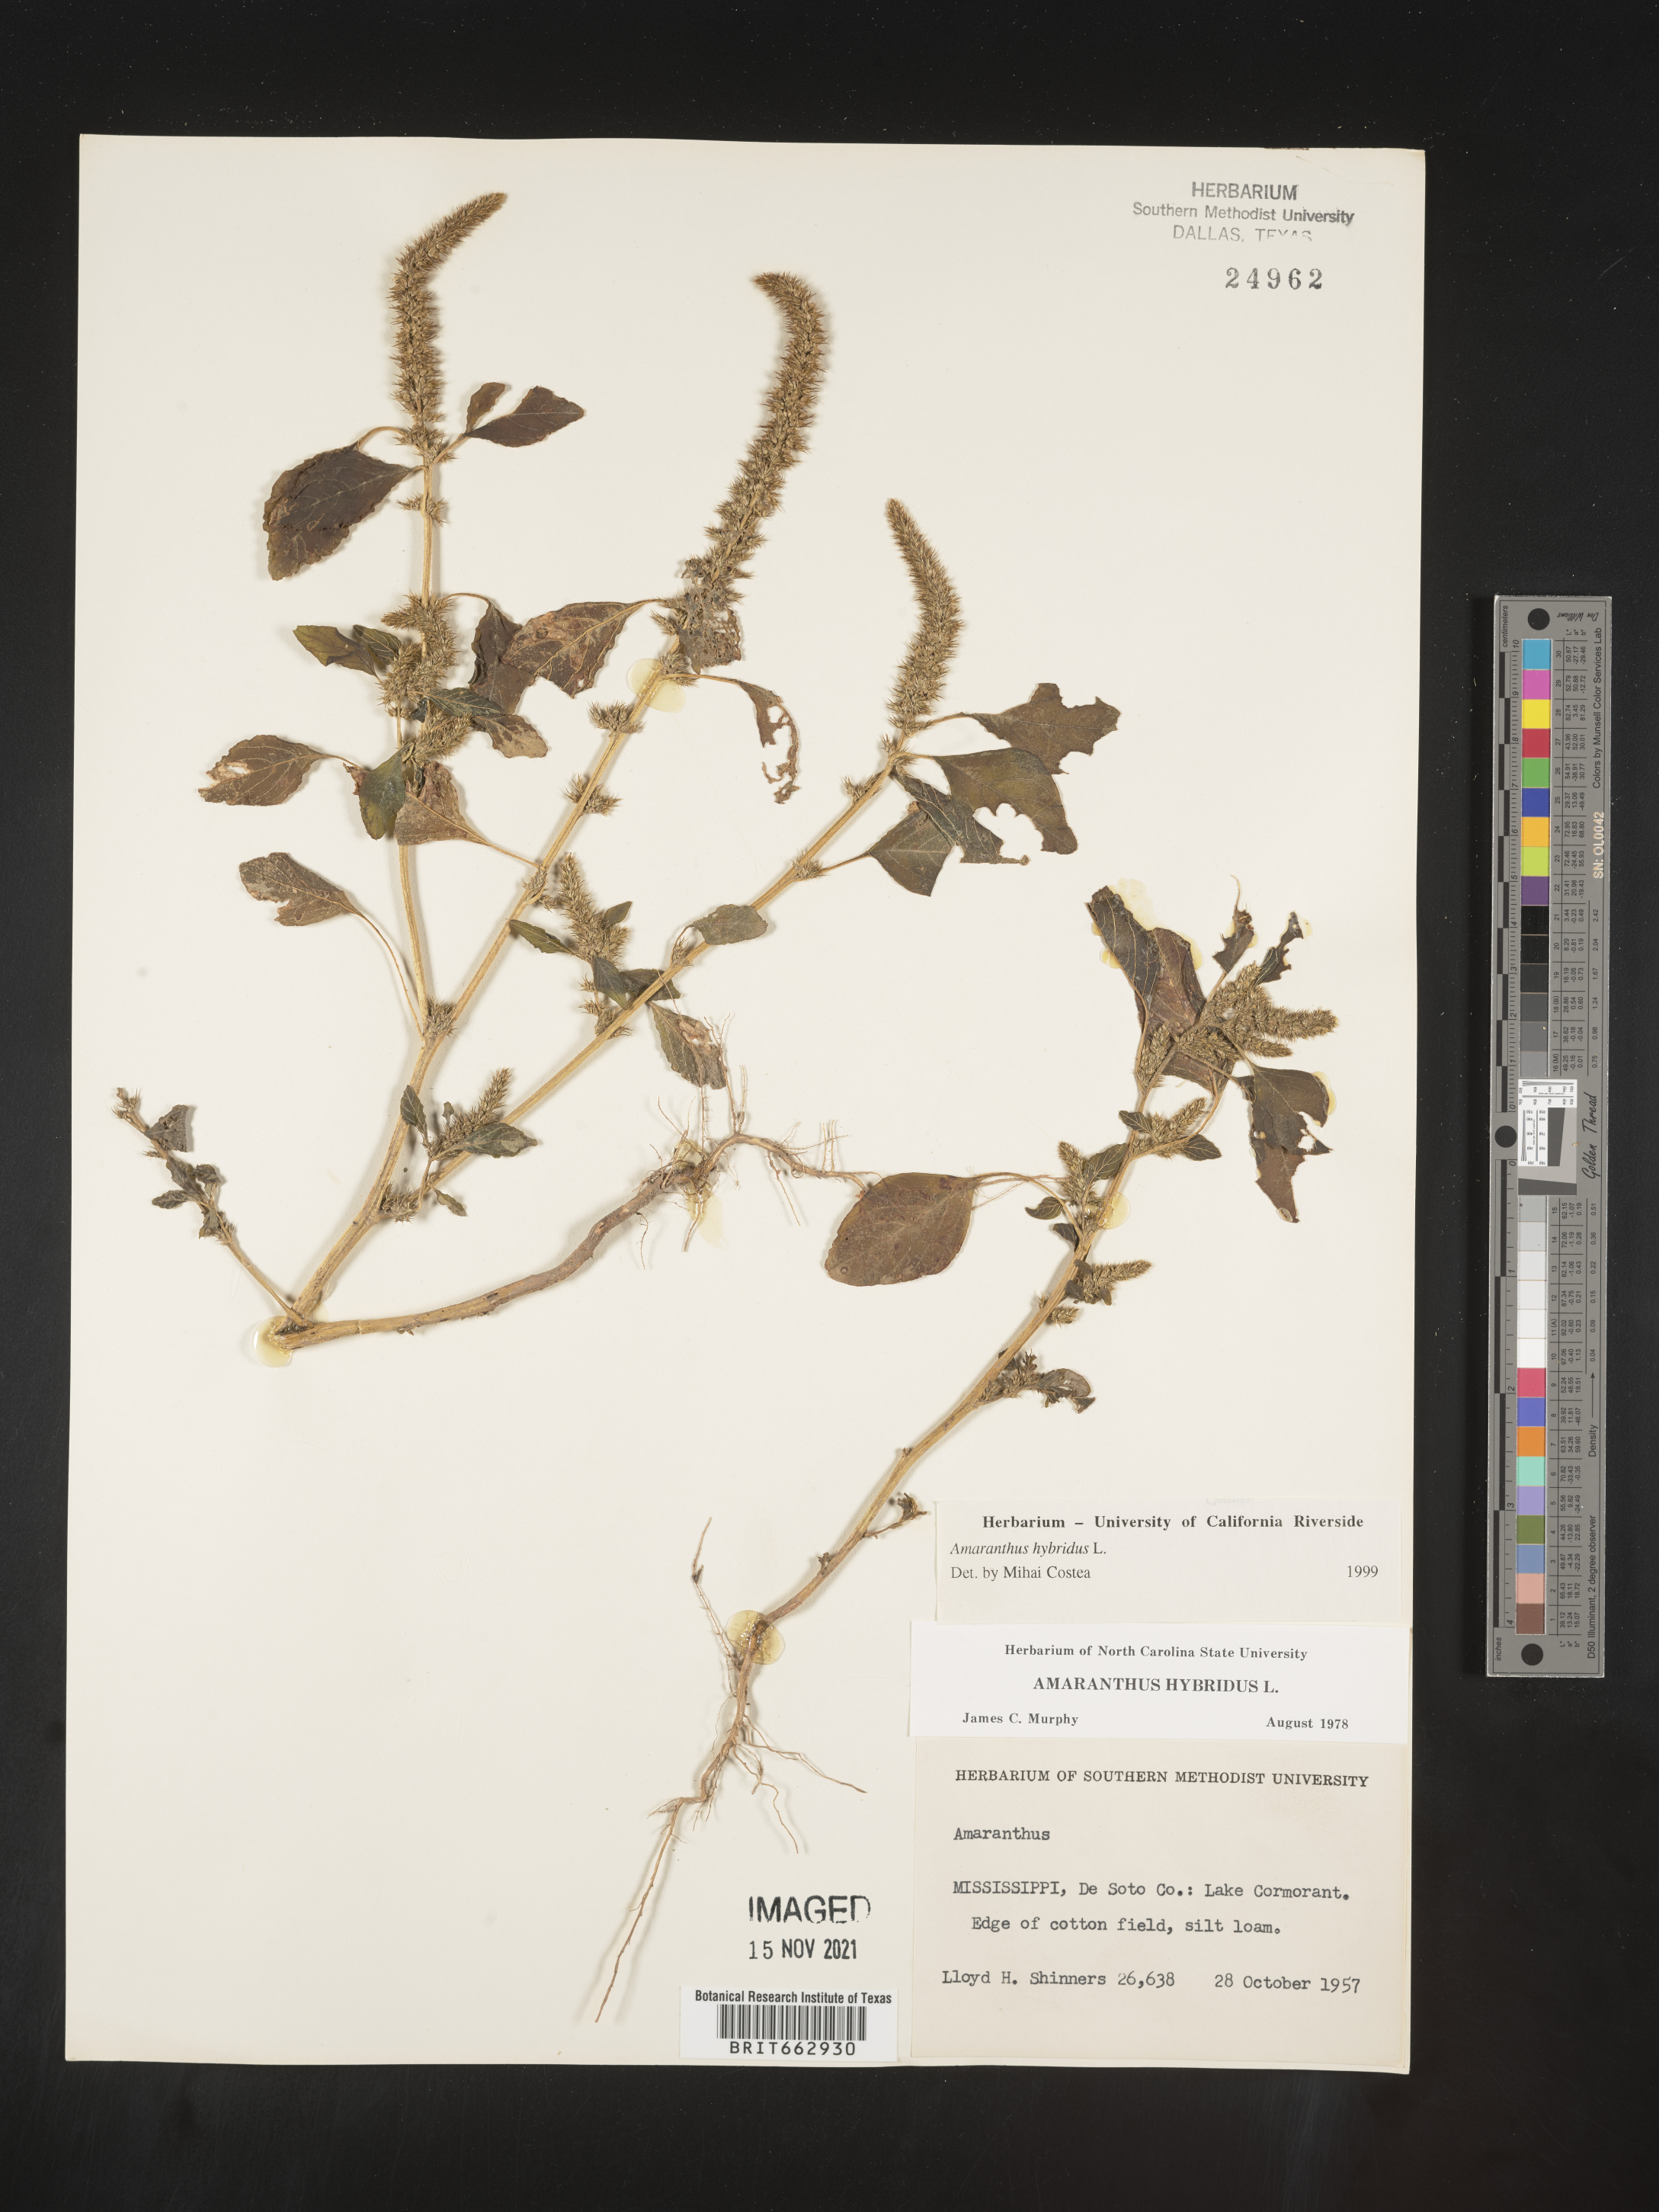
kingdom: Plantae
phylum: Tracheophyta
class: Magnoliopsida
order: Caryophyllales
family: Amaranthaceae
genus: Amaranthus
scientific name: Amaranthus hybridus
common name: Green amaranth
